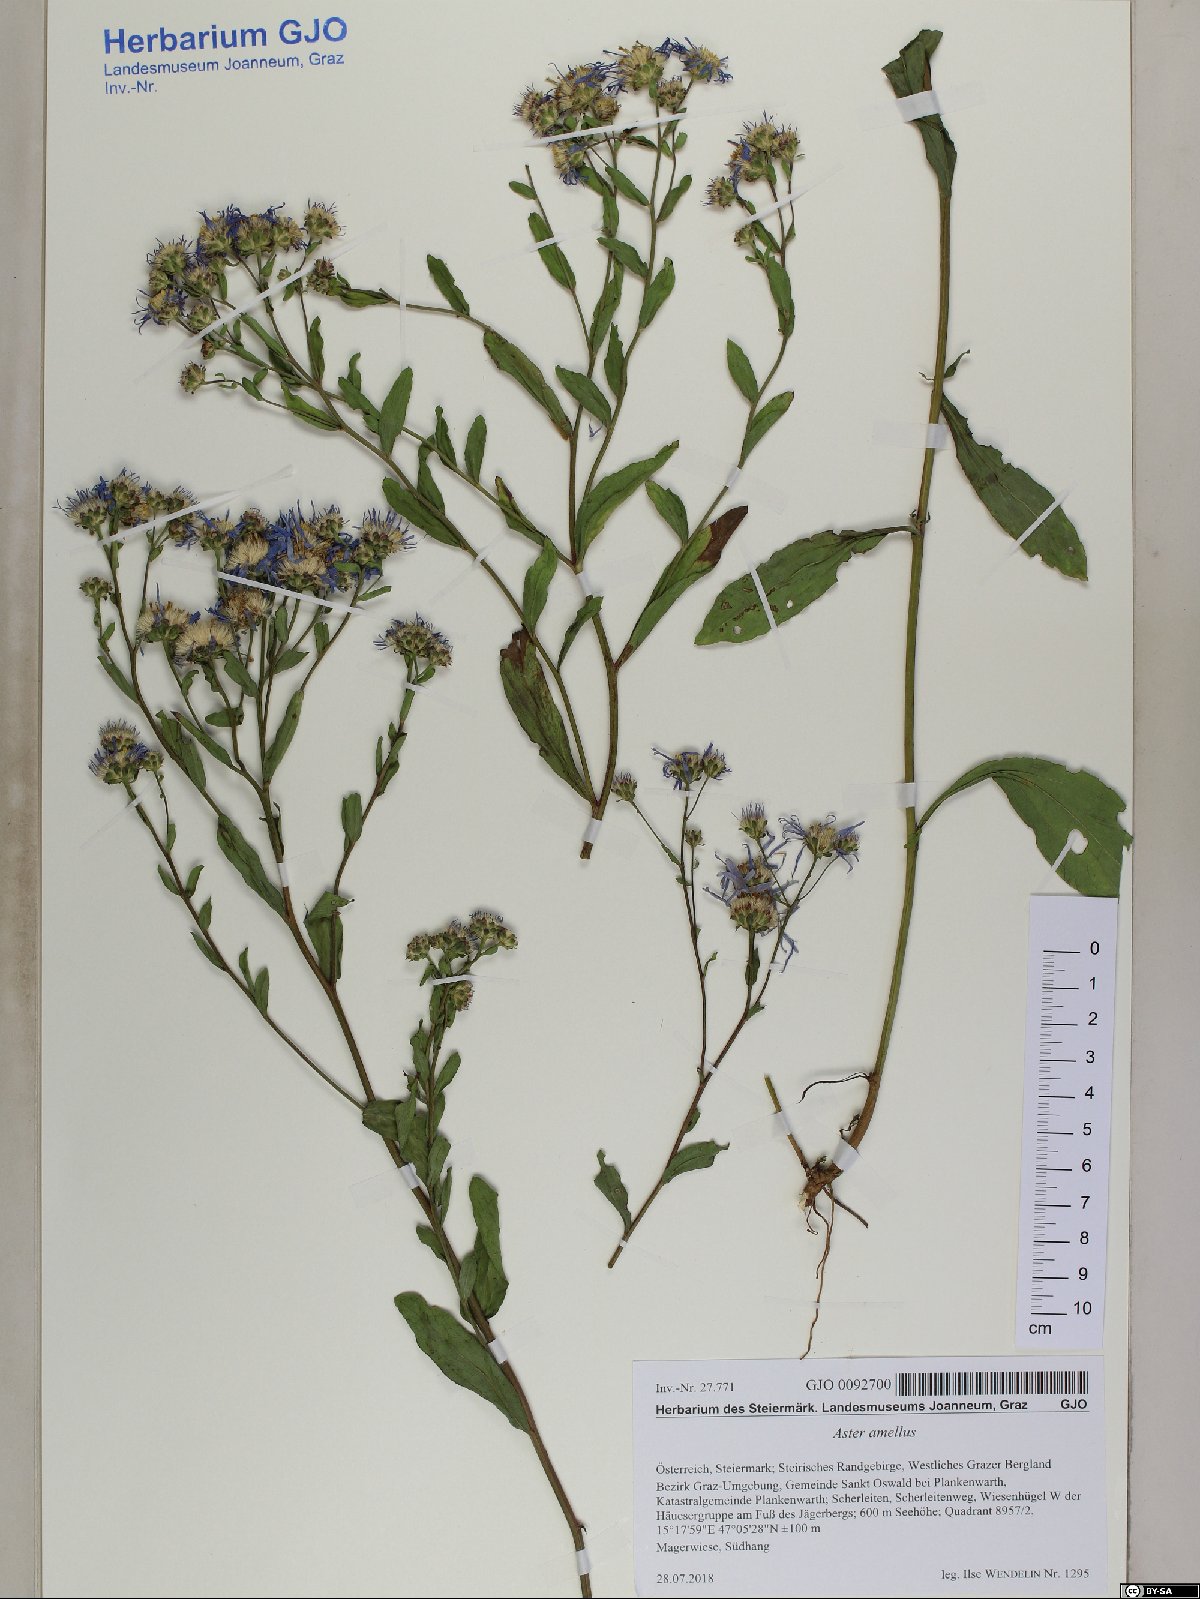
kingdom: Plantae
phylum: Tracheophyta
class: Magnoliopsida
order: Asterales
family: Asteraceae
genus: Aster
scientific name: Aster amellus
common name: European michaelmas daisy
